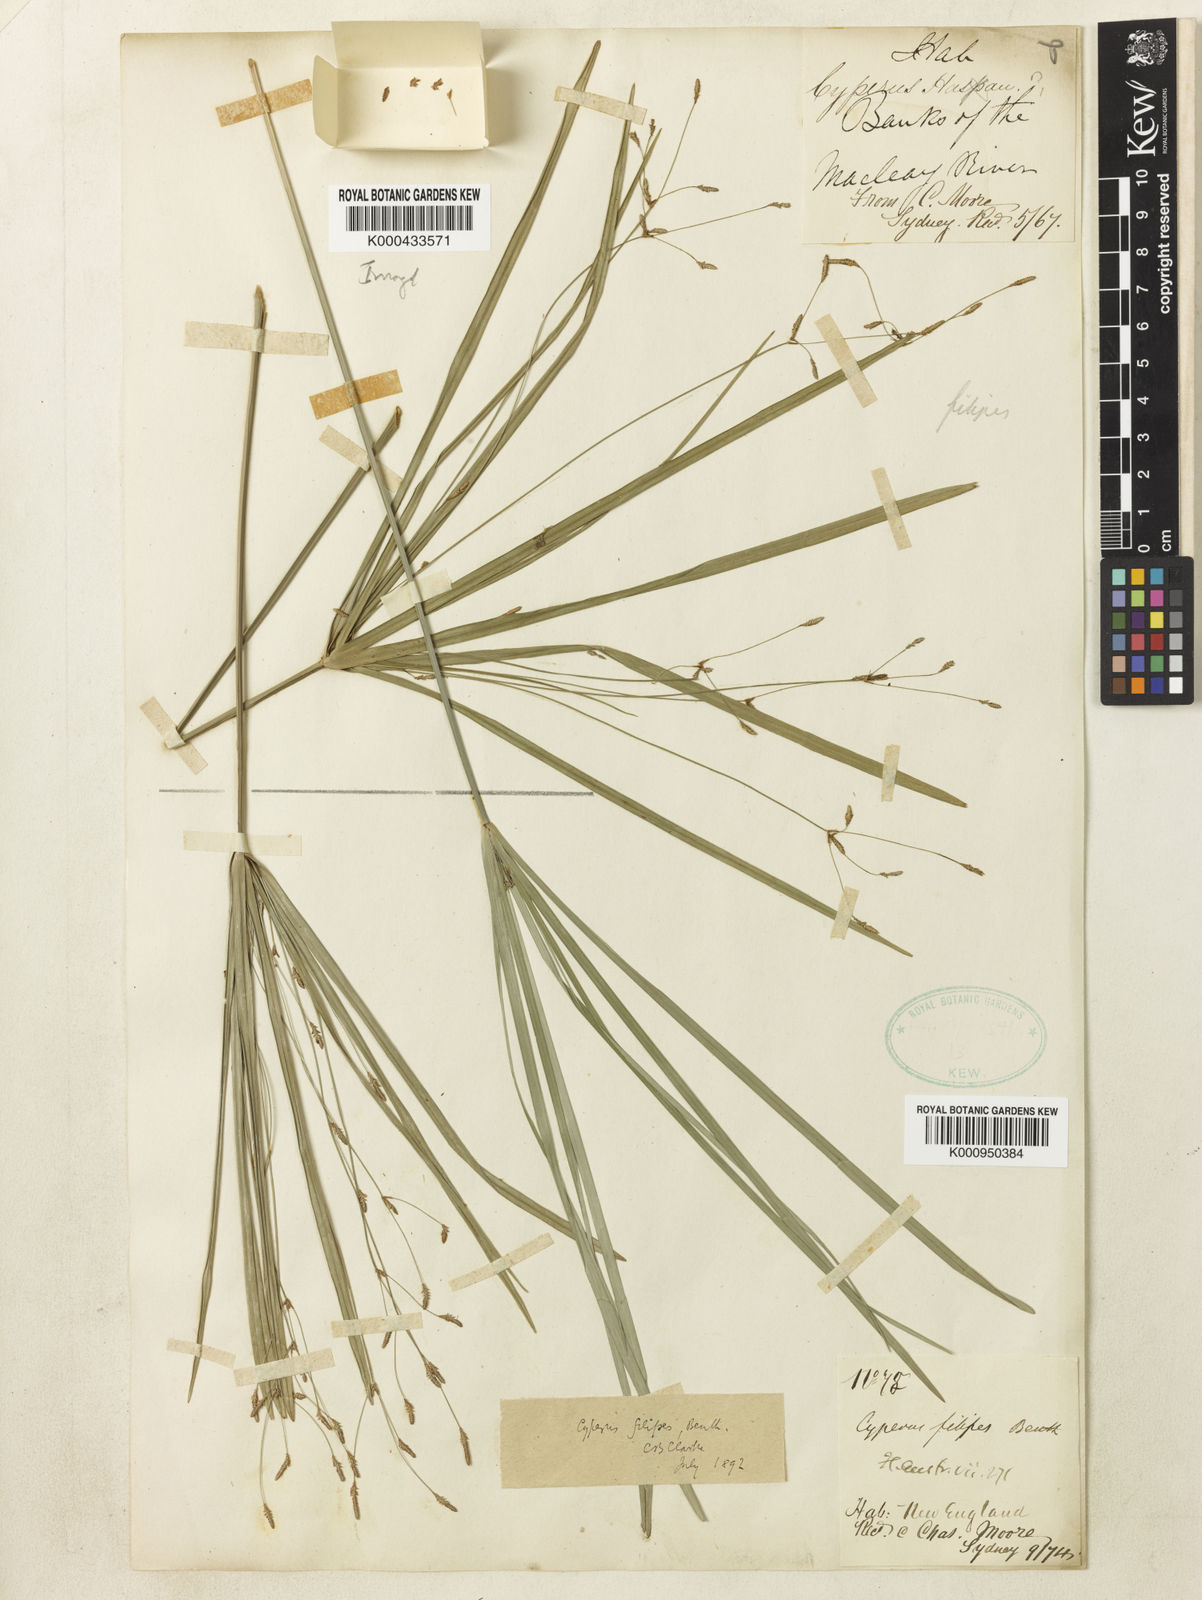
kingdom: Plantae
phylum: Tracheophyta
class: Liliopsida
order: Poales
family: Cyperaceae
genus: Cyperus
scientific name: Cyperus filipes
